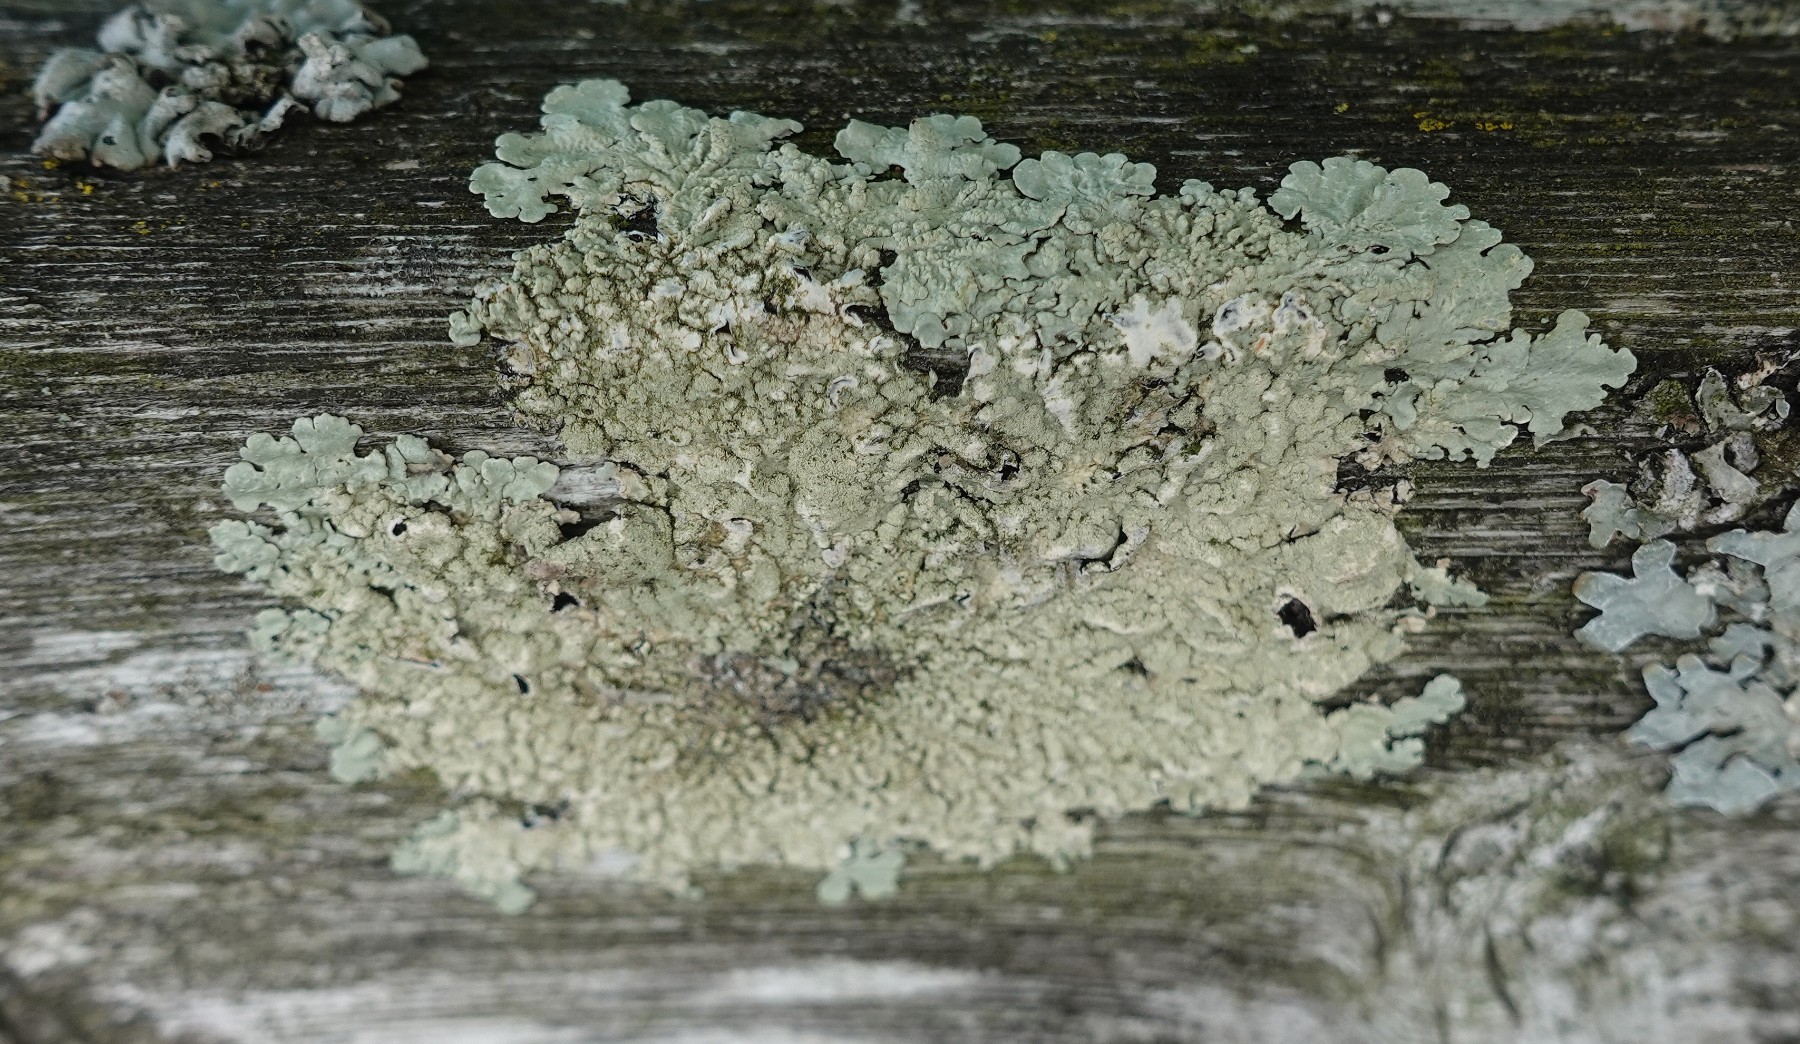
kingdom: Fungi
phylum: Ascomycota
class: Lecanoromycetes
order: Lecanorales
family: Parmeliaceae
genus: Flavoparmelia
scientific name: Flavoparmelia soredians
